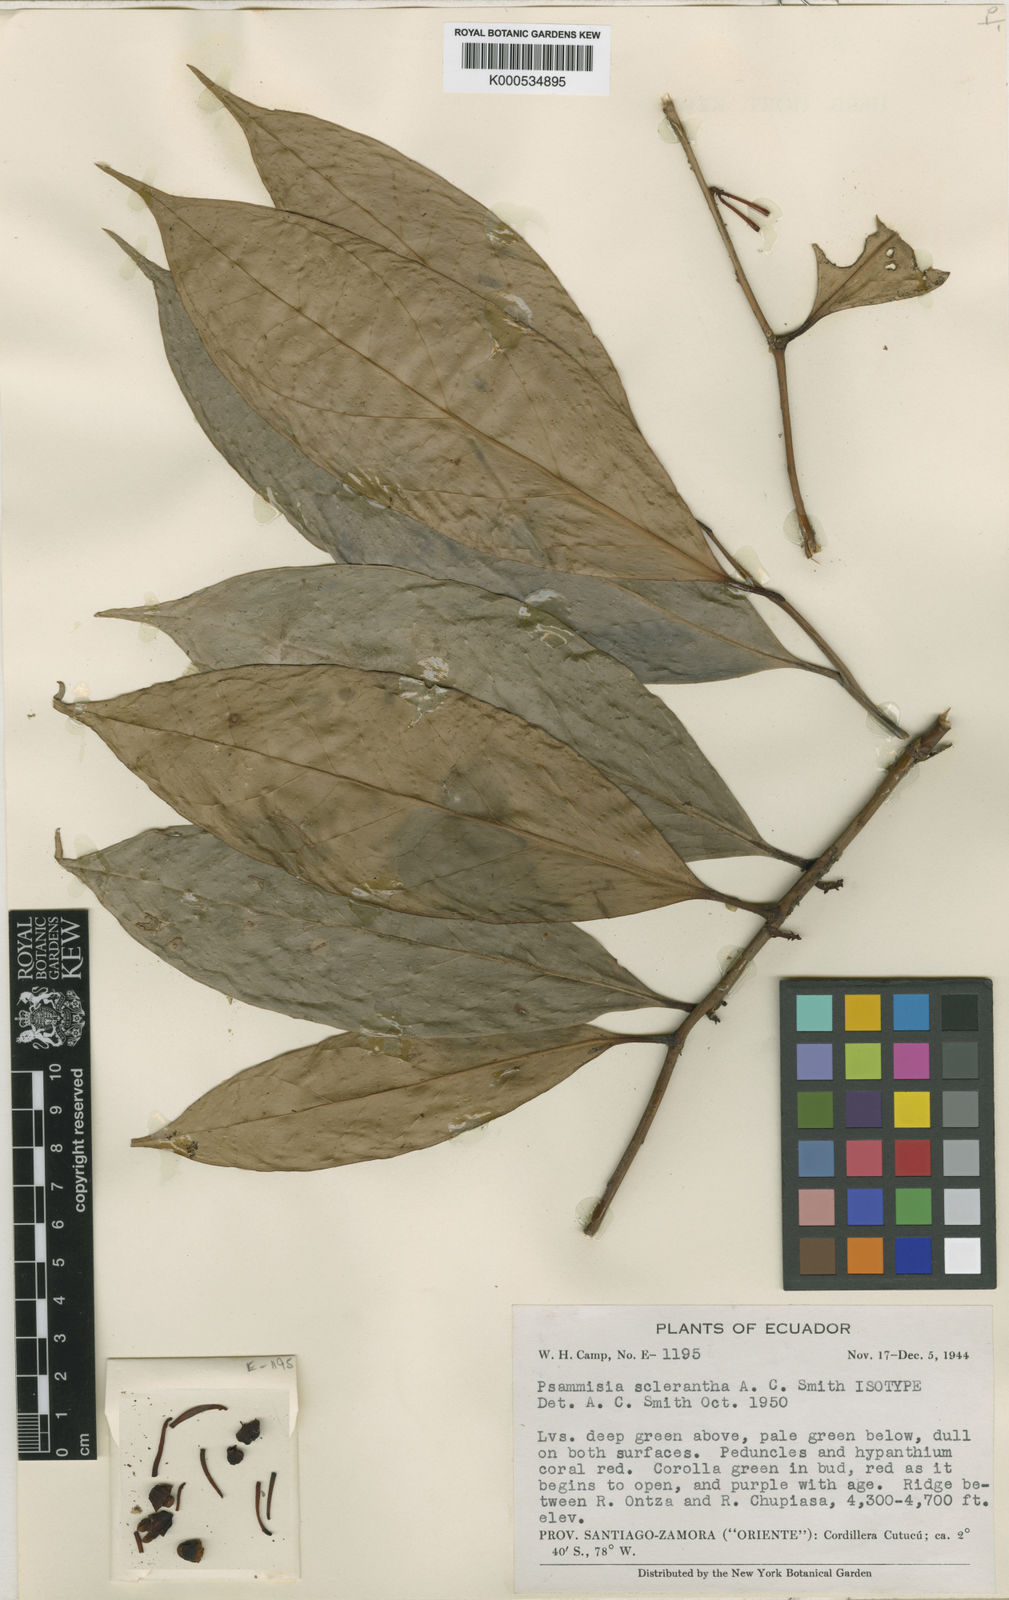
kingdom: Plantae
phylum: Tracheophyta
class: Magnoliopsida
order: Ericales
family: Ericaceae
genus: Psammisia
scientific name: Psammisia sclerantha
